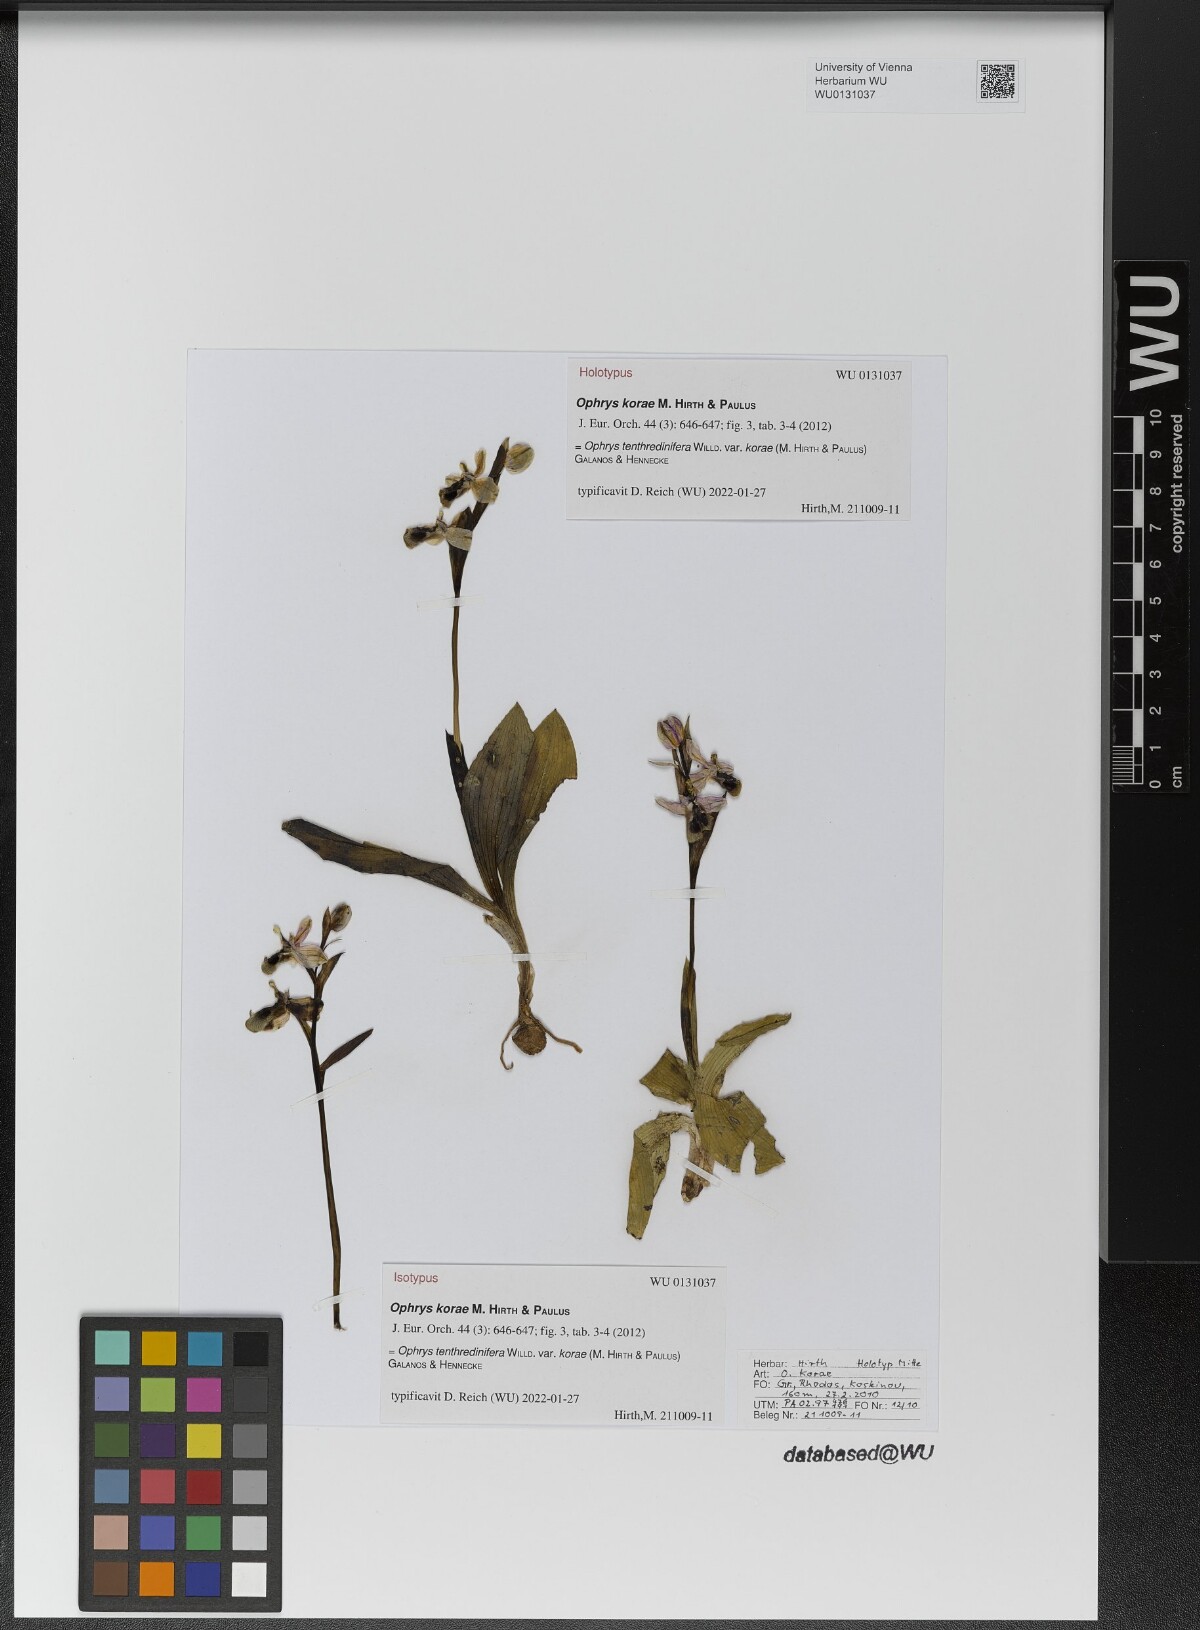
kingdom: Plantae
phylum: Tracheophyta
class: Liliopsida
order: Asparagales
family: Orchidaceae
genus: Ophrys
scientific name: Ophrys tenthredinifera
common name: Sawfly orchid
